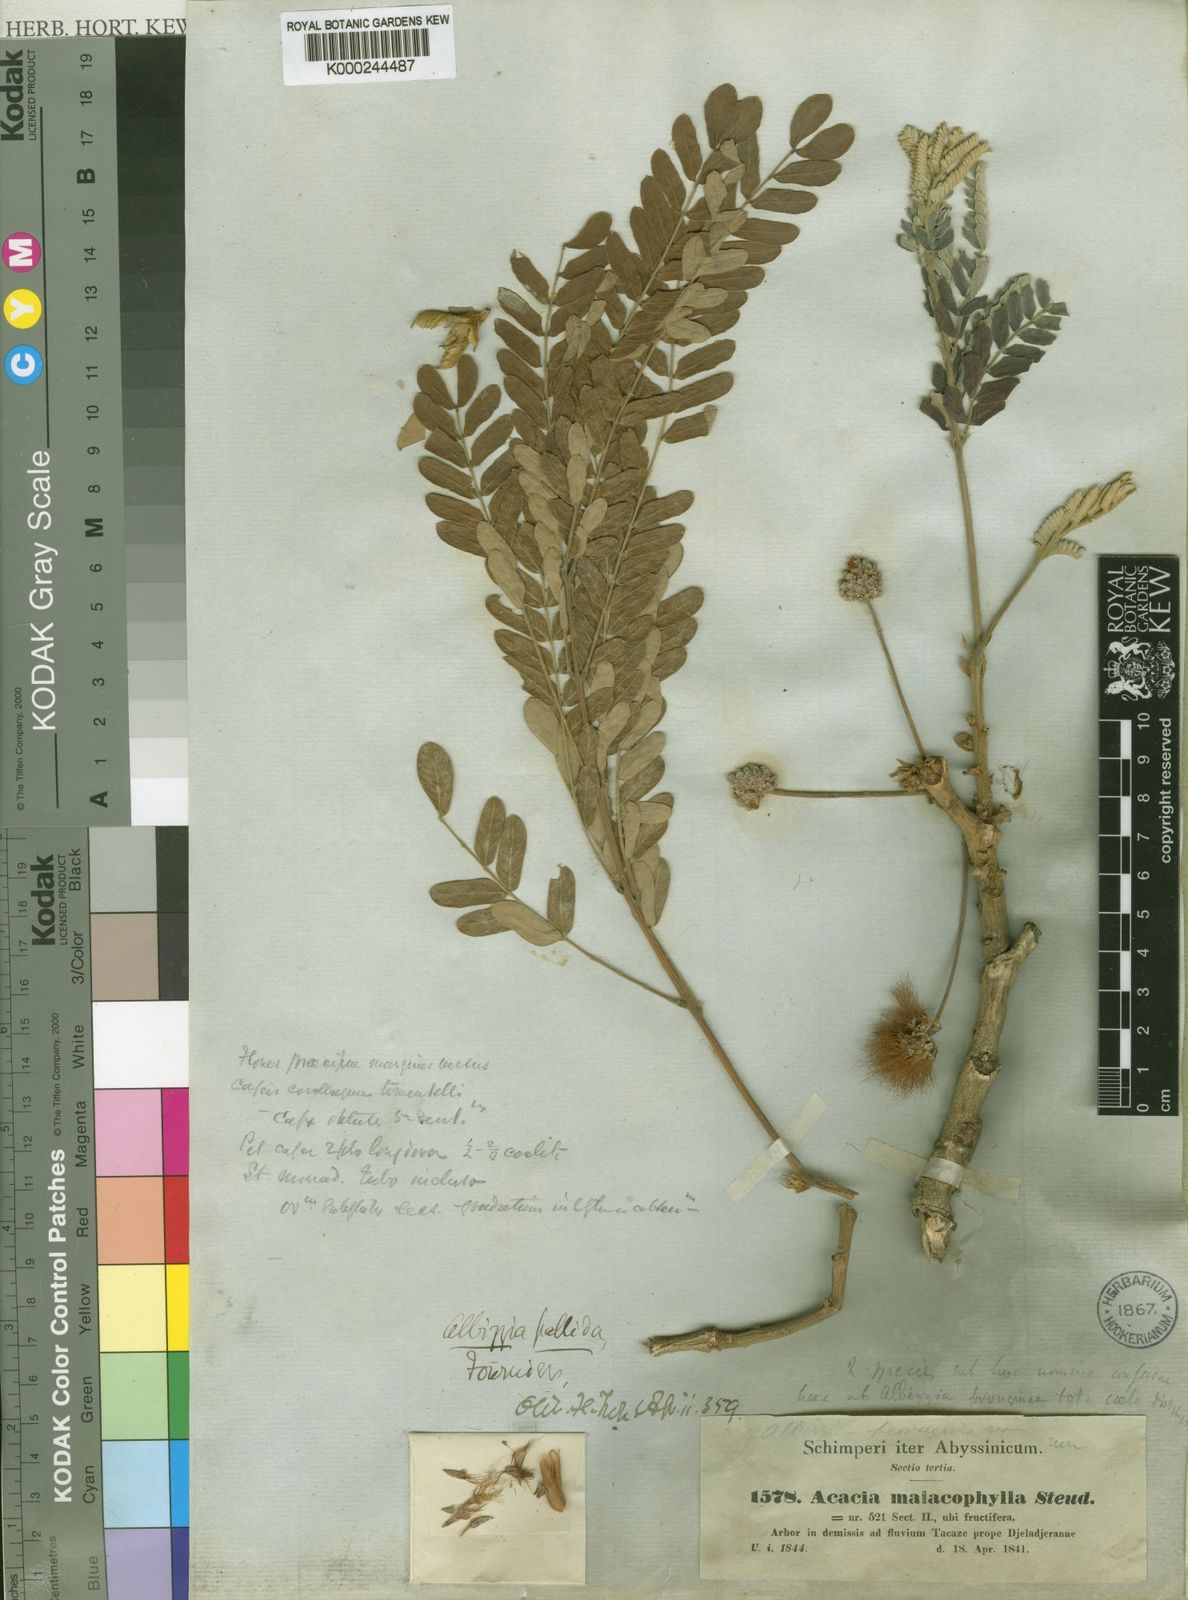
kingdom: Plantae
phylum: Tracheophyta
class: Magnoliopsida
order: Fabales
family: Fabaceae
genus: Acacia
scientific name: Acacia
